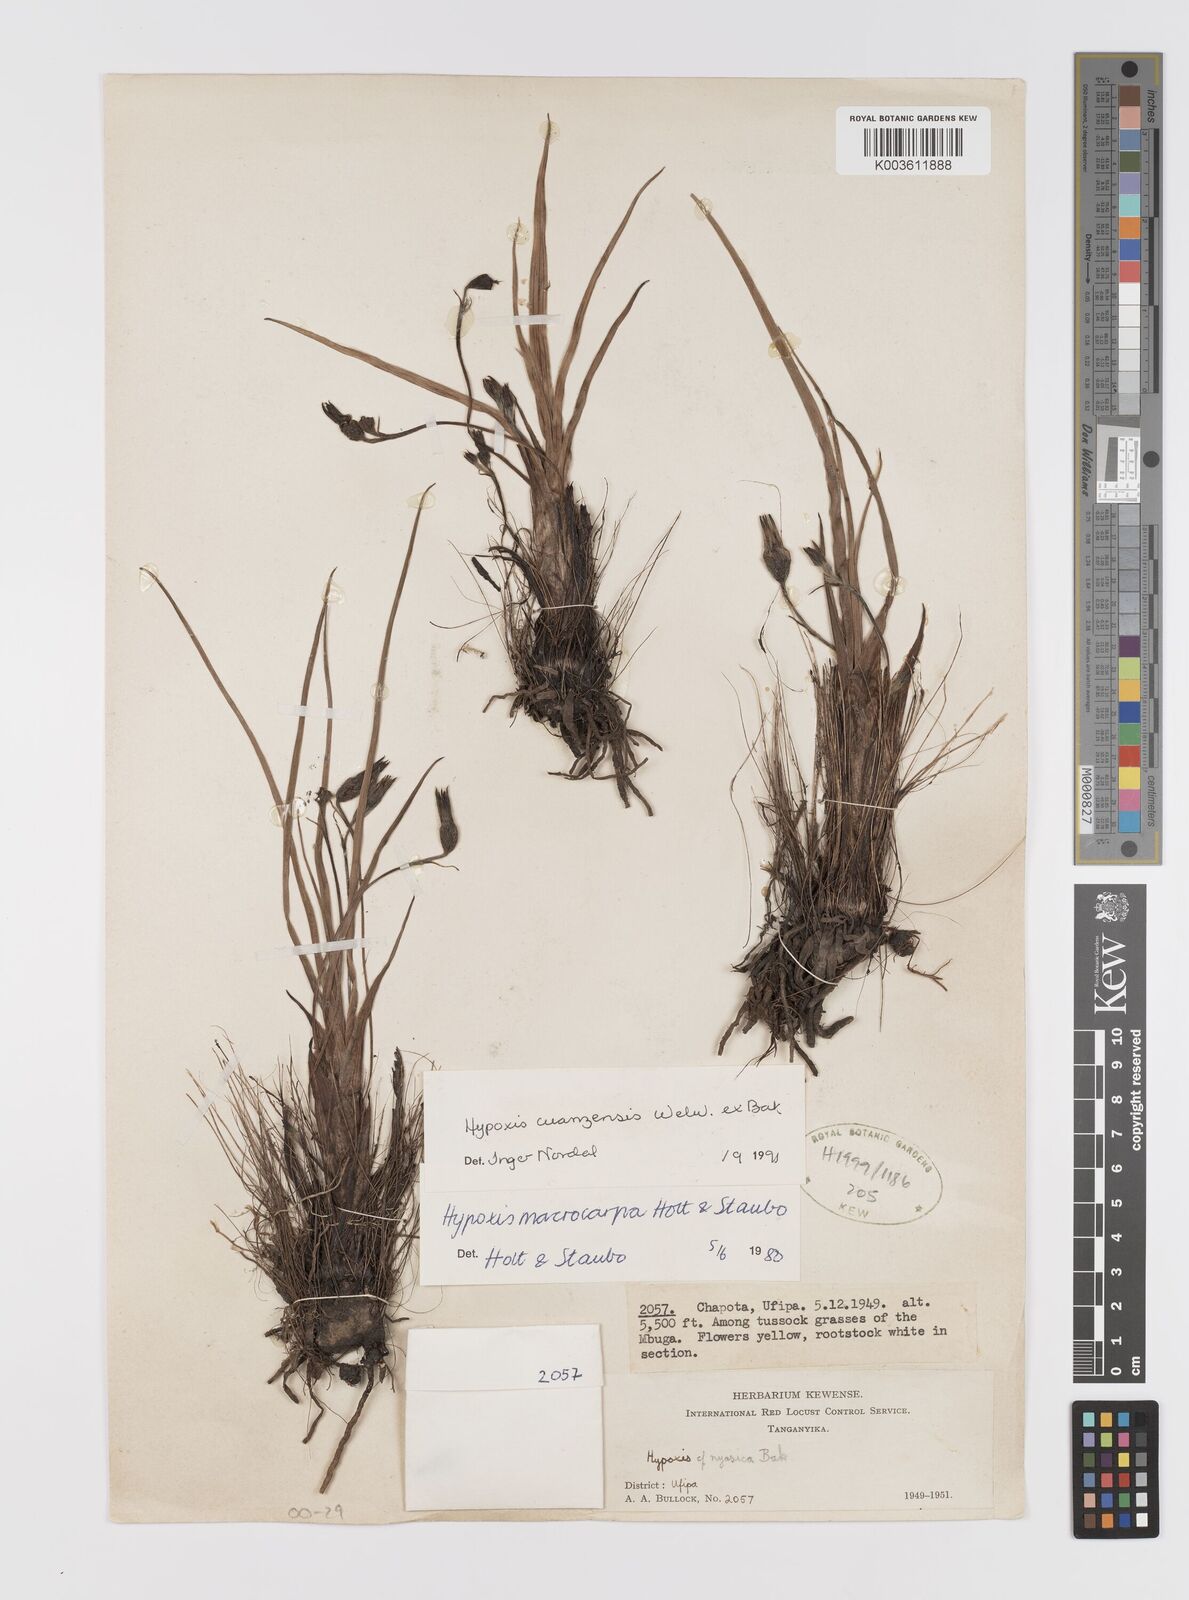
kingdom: Plantae
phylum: Tracheophyta
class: Liliopsida
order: Asparagales
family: Hypoxidaceae
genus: Hypoxis
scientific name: Hypoxis schimperi
